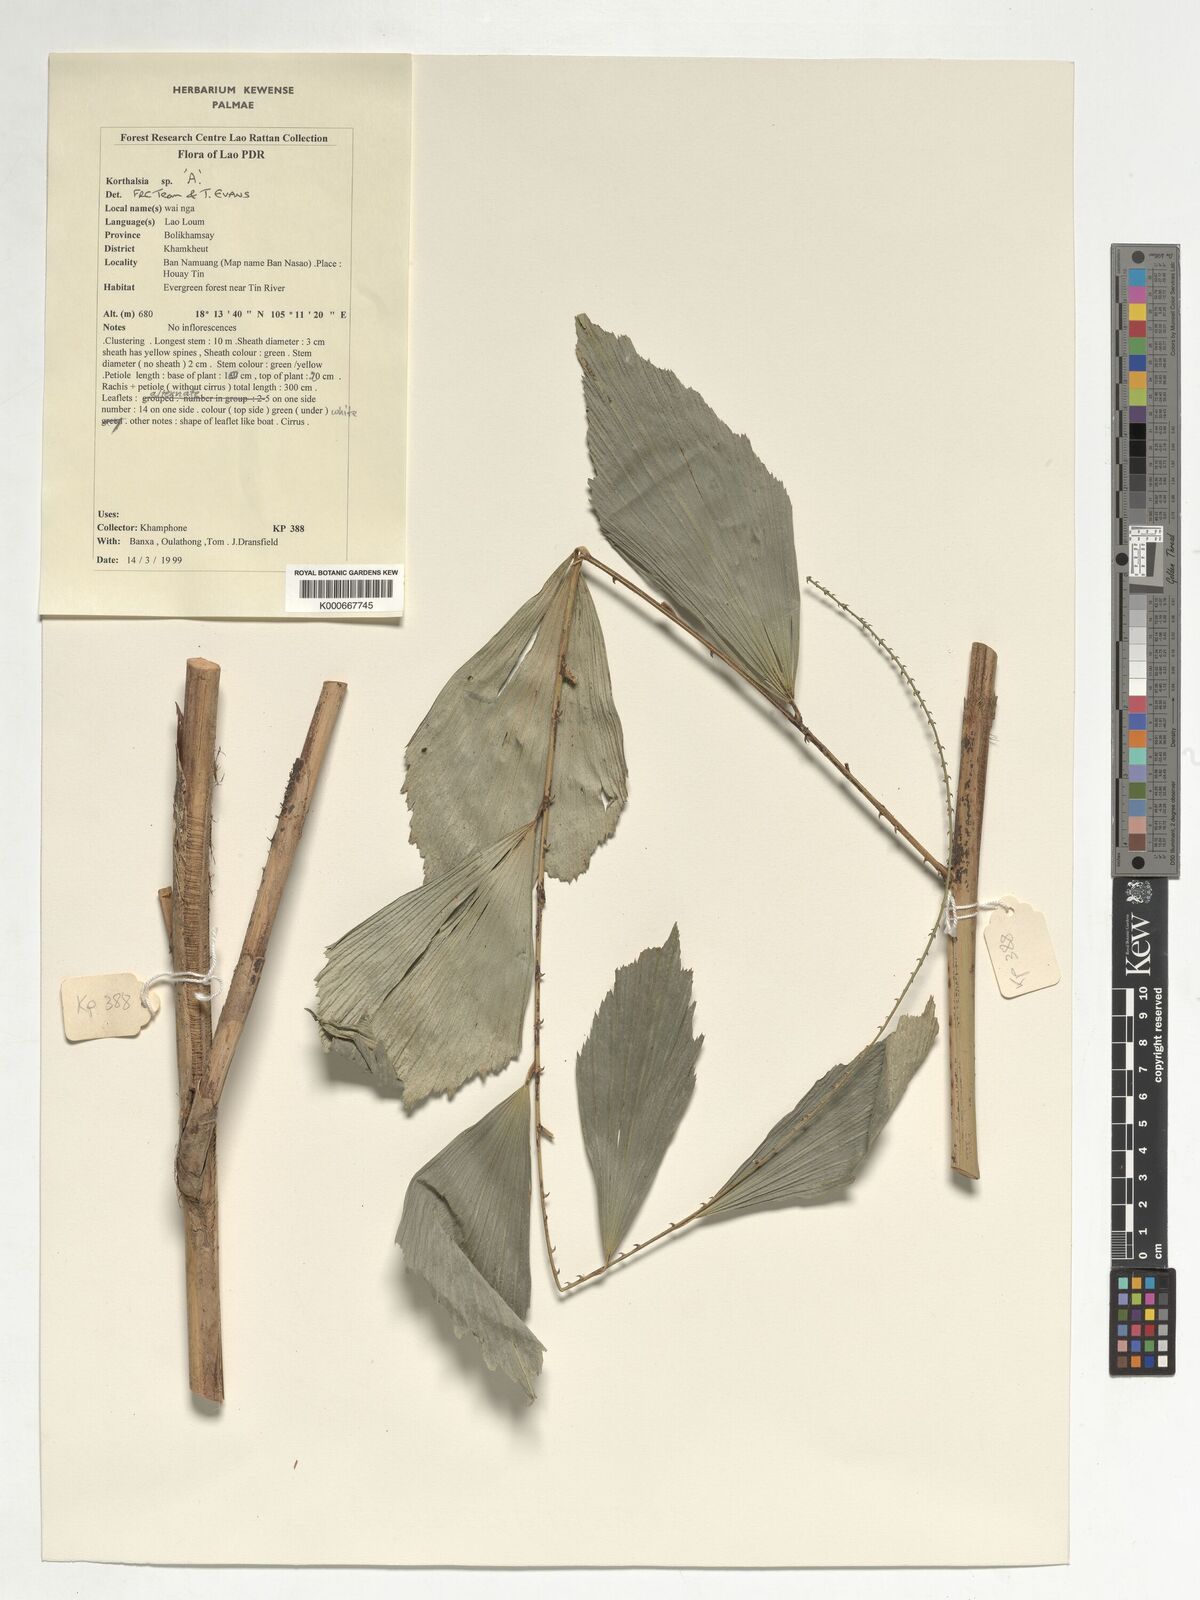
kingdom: Plantae
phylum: Tracheophyta
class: Liliopsida
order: Arecales
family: Arecaceae
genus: Korthalsia
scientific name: Korthalsia
